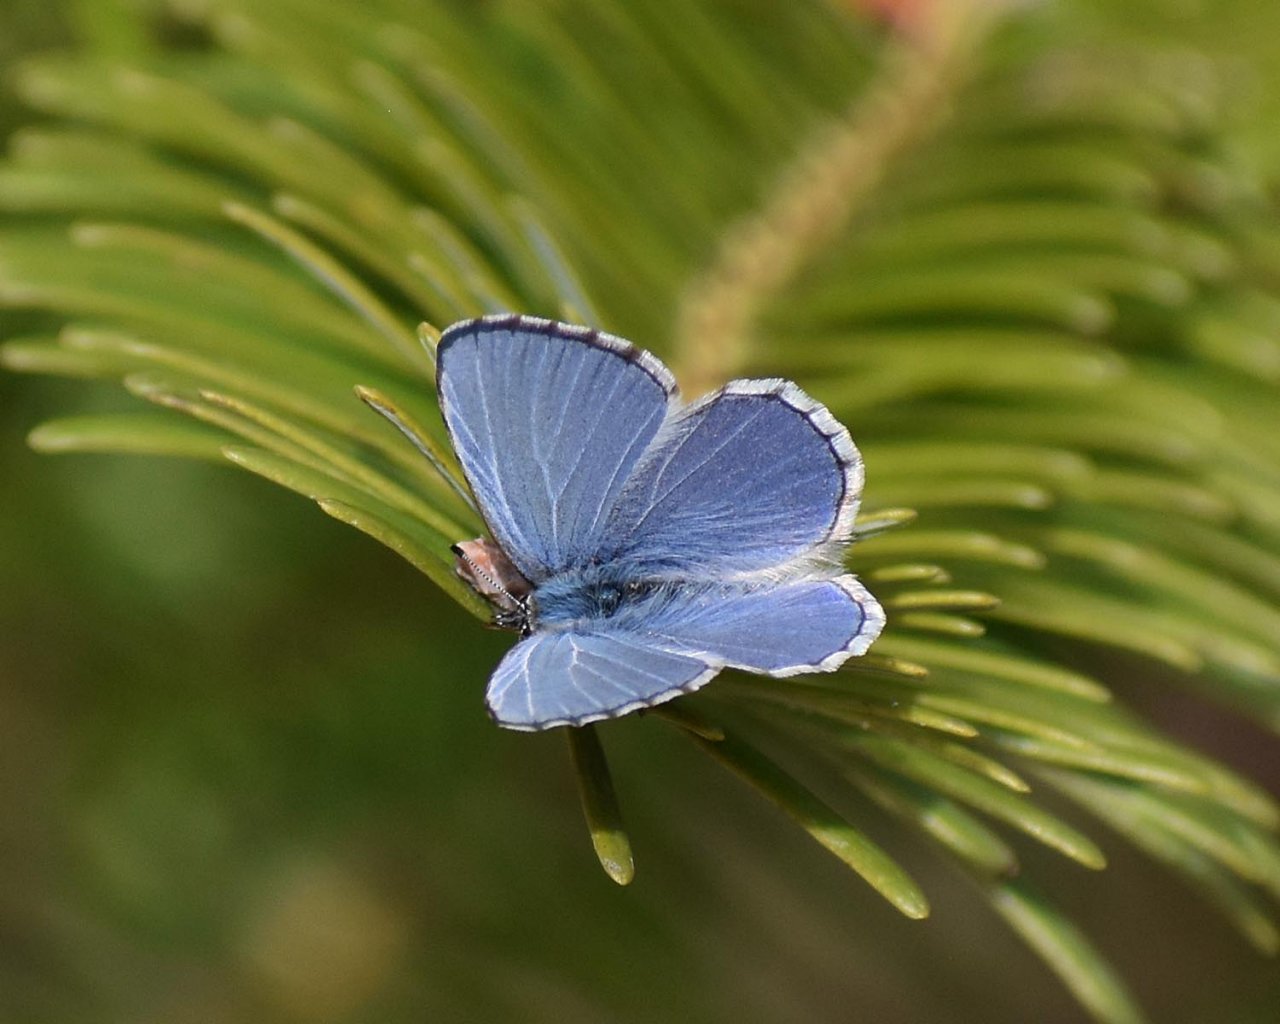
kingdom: Animalia
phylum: Arthropoda
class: Insecta
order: Lepidoptera
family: Lycaenidae
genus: Celastrina
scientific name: Celastrina ladon
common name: Echo Azure
